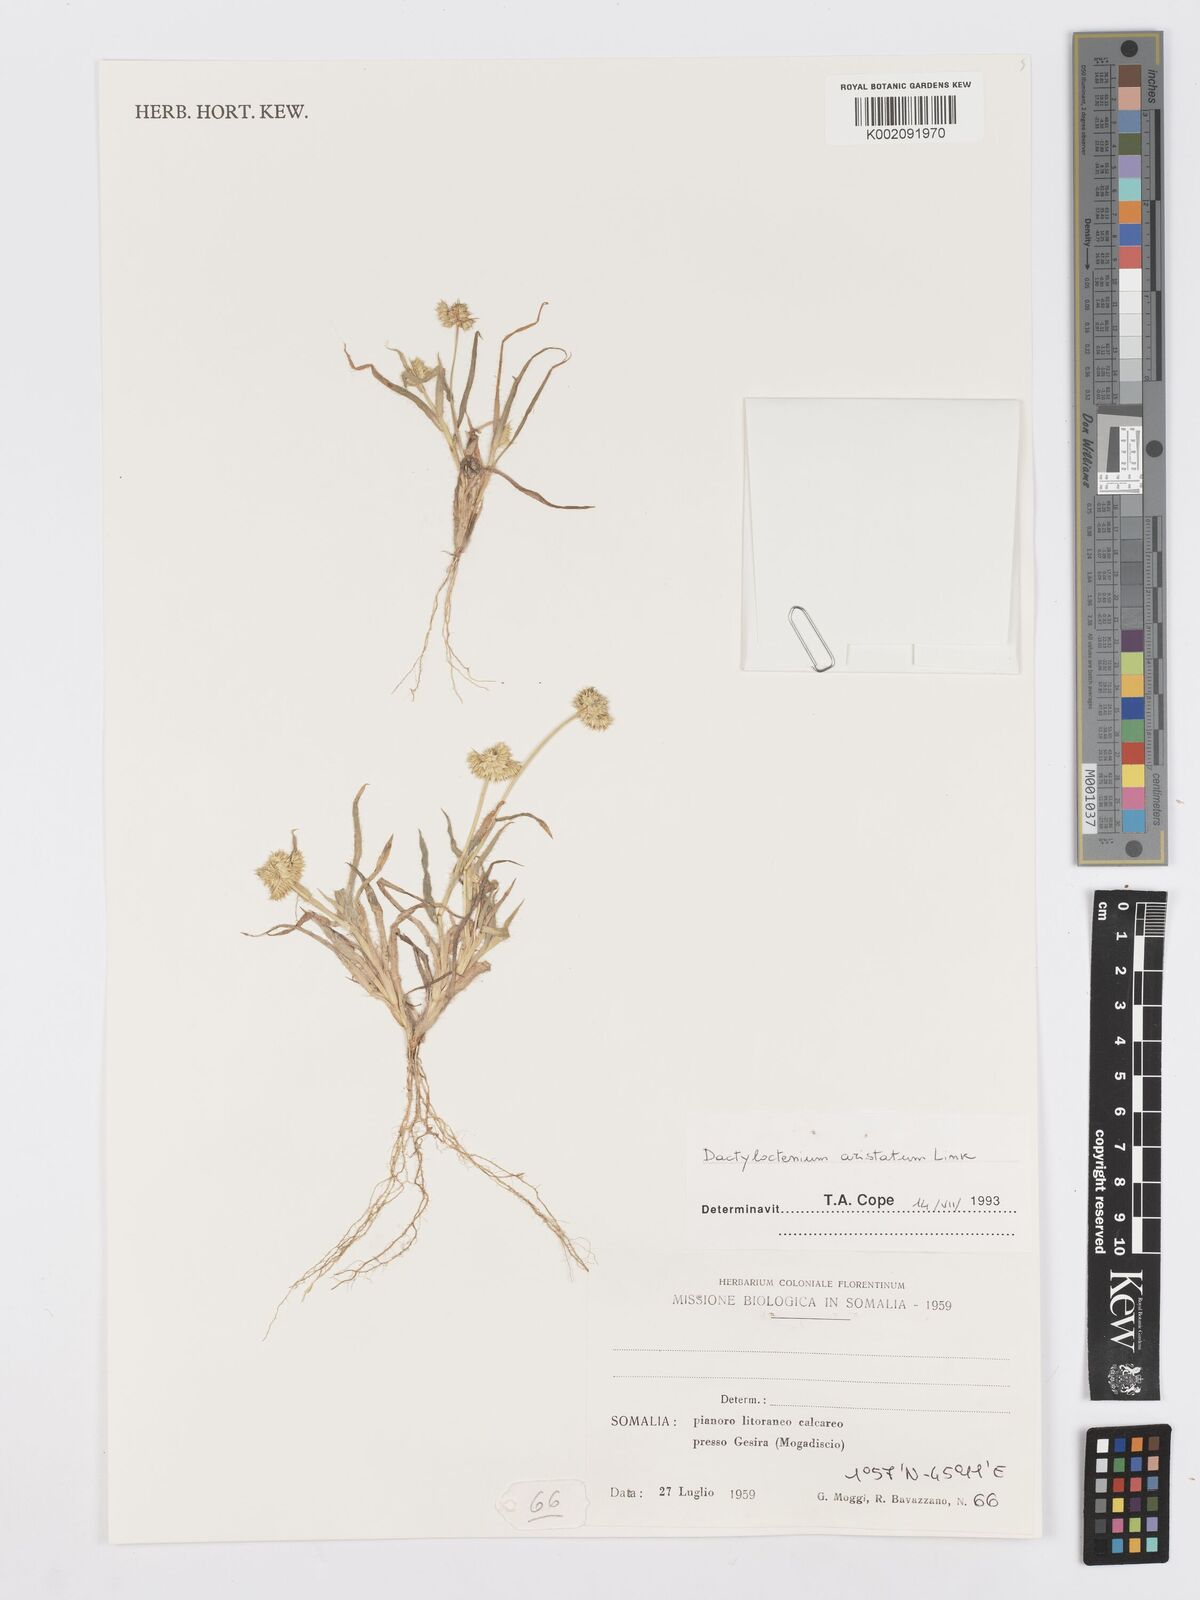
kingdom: Plantae
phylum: Tracheophyta
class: Liliopsida
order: Poales
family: Poaceae
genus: Dactyloctenium
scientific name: Dactyloctenium aristatum
